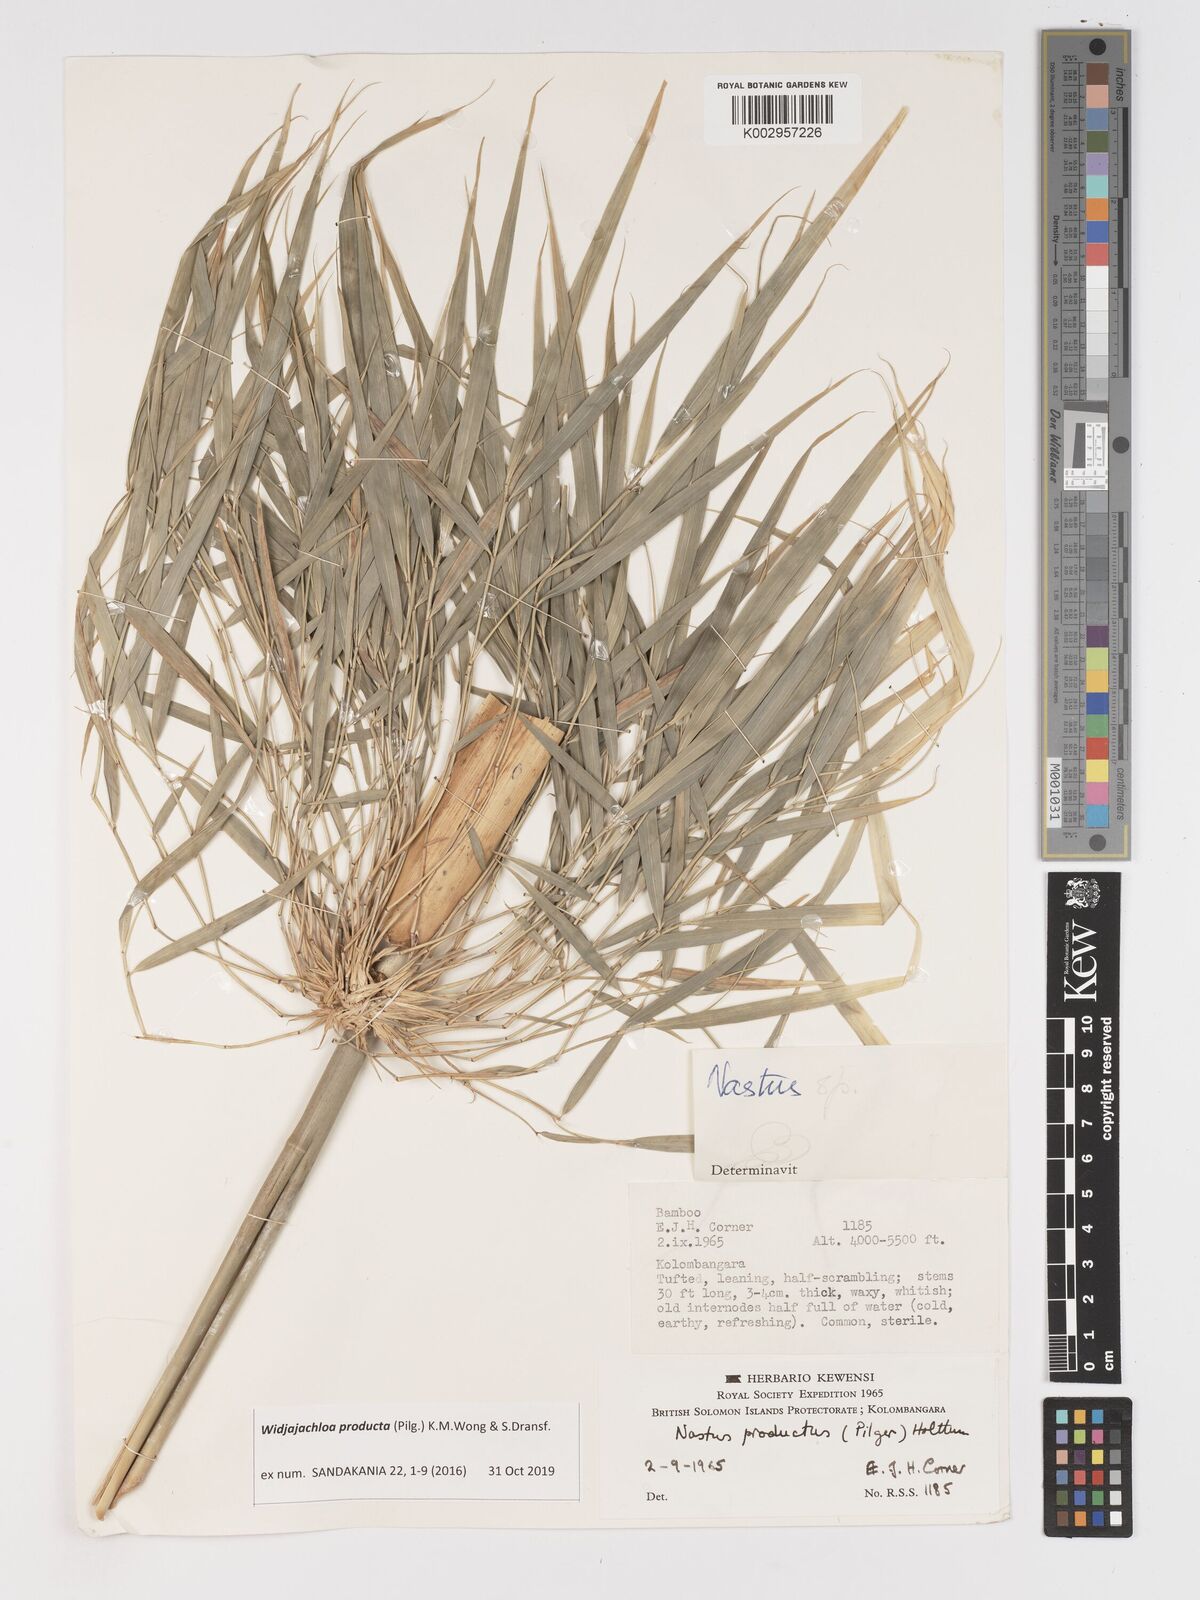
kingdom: Plantae
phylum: Tracheophyta
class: Liliopsida
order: Poales
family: Poaceae
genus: Widjajachloa
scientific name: Widjajachloa producta
